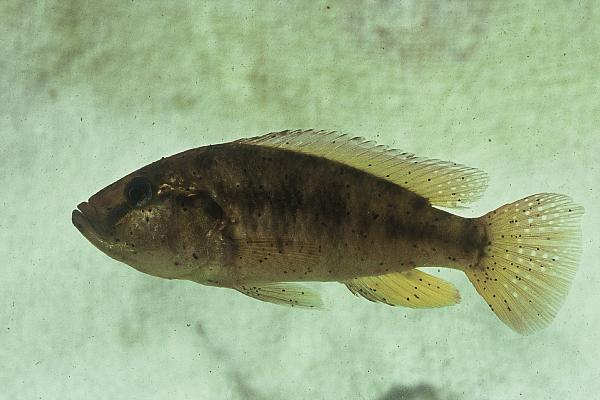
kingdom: Animalia
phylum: Chordata
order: Perciformes
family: Cichlidae
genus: Pseudocrenilabrus
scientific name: Pseudocrenilabrus philander
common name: Southern mouthbrooder
